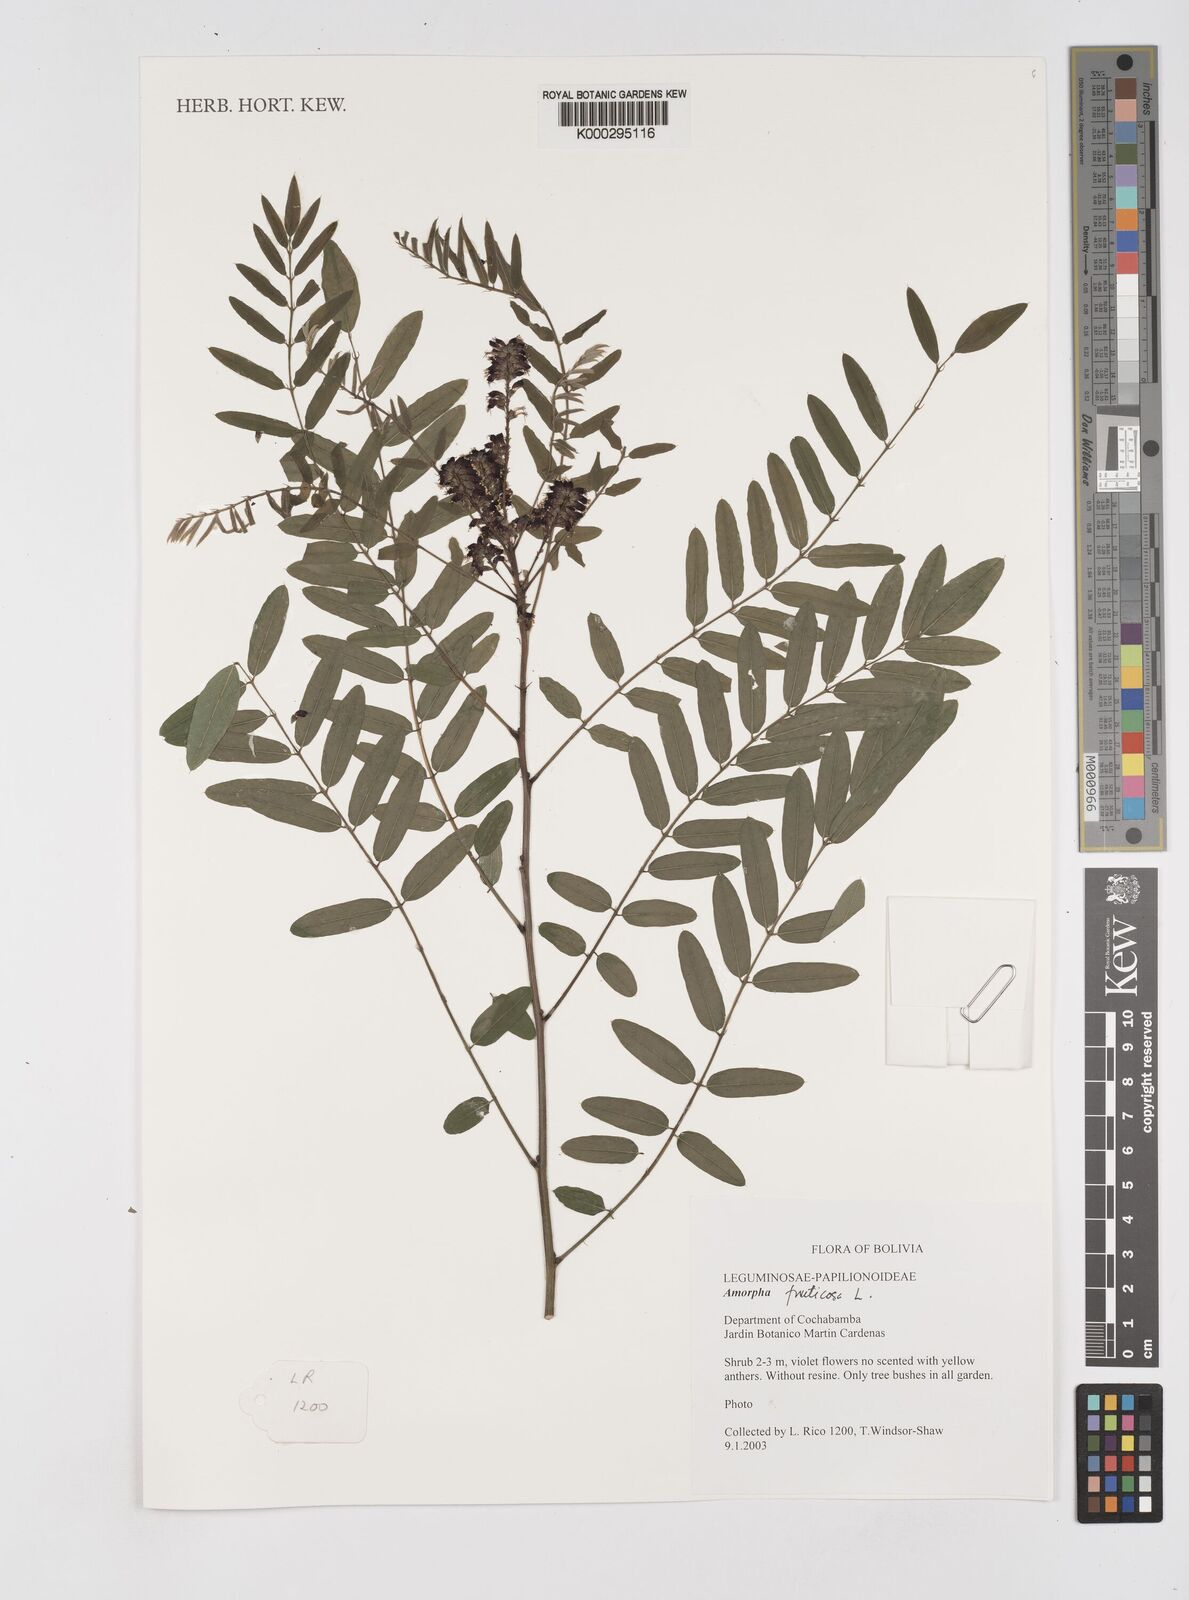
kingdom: Plantae
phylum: Tracheophyta
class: Magnoliopsida
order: Fabales
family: Fabaceae
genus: Amorpha
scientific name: Amorpha fruticosa
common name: False indigo
